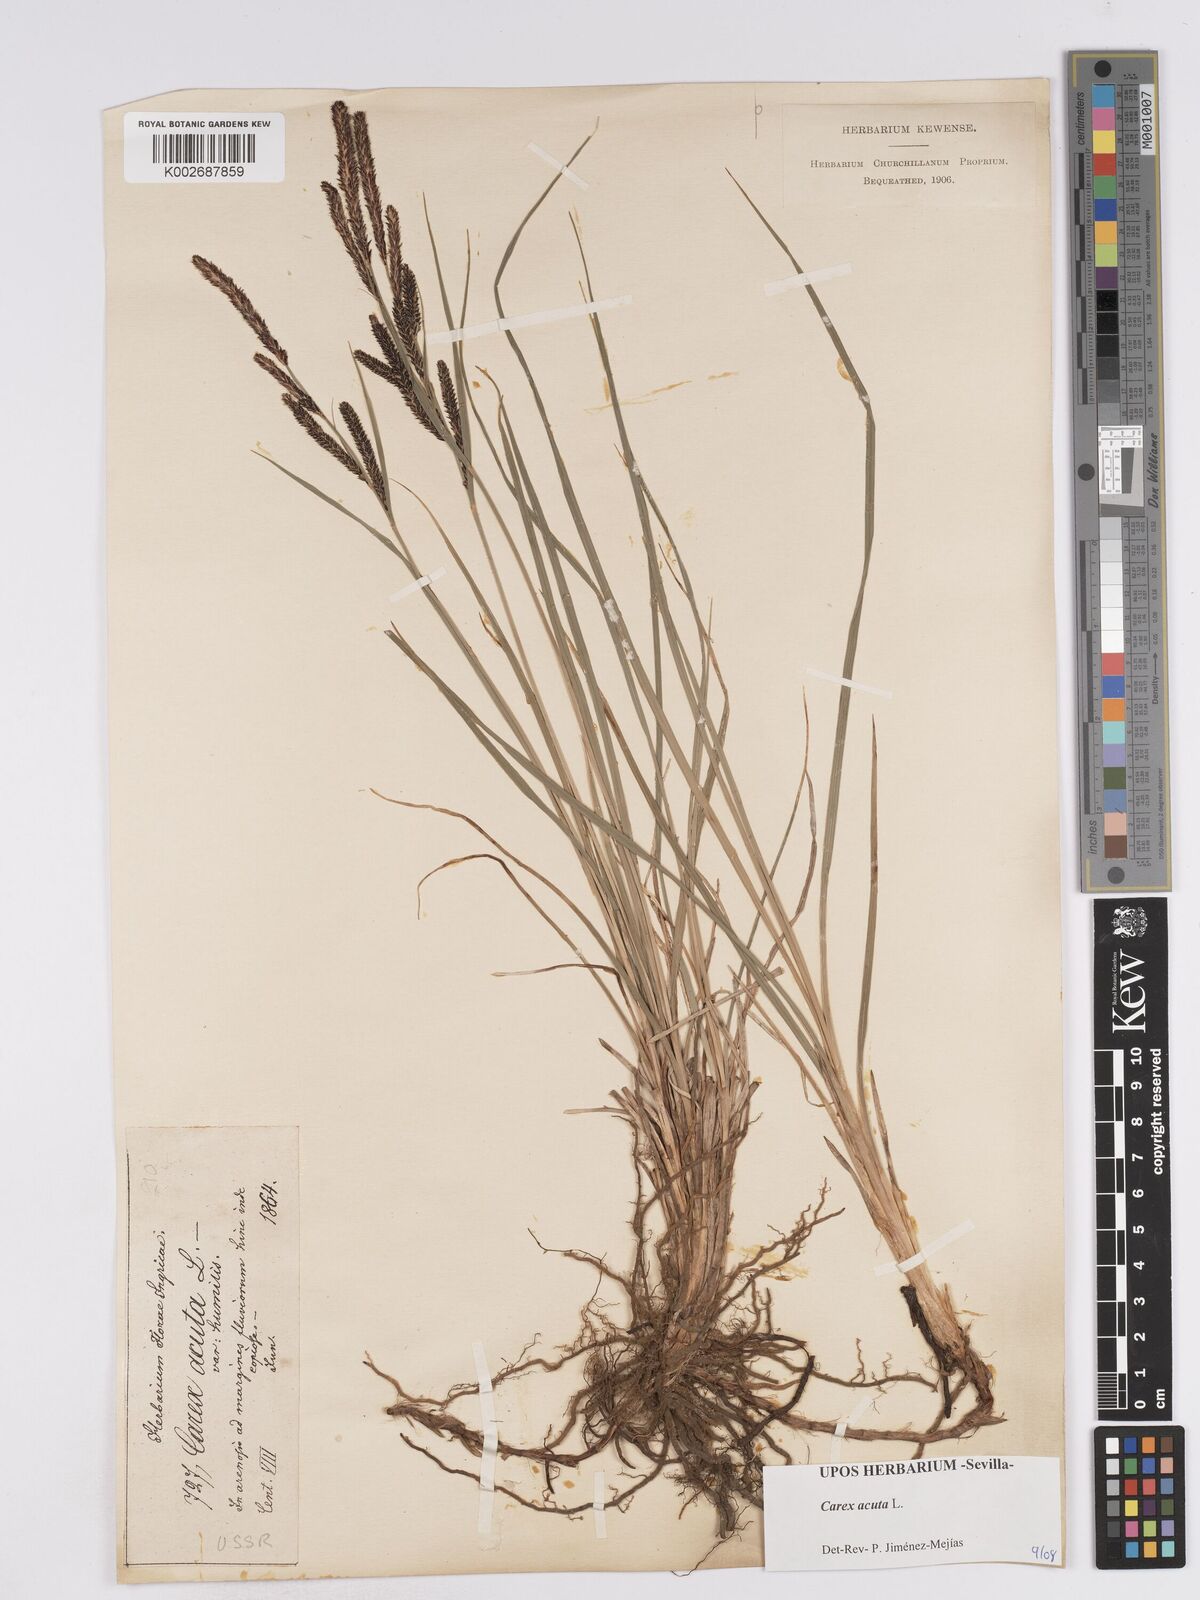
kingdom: Plantae
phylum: Tracheophyta
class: Liliopsida
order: Poales
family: Cyperaceae
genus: Carex
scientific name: Carex acuta
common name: Slender tufted-sedge
